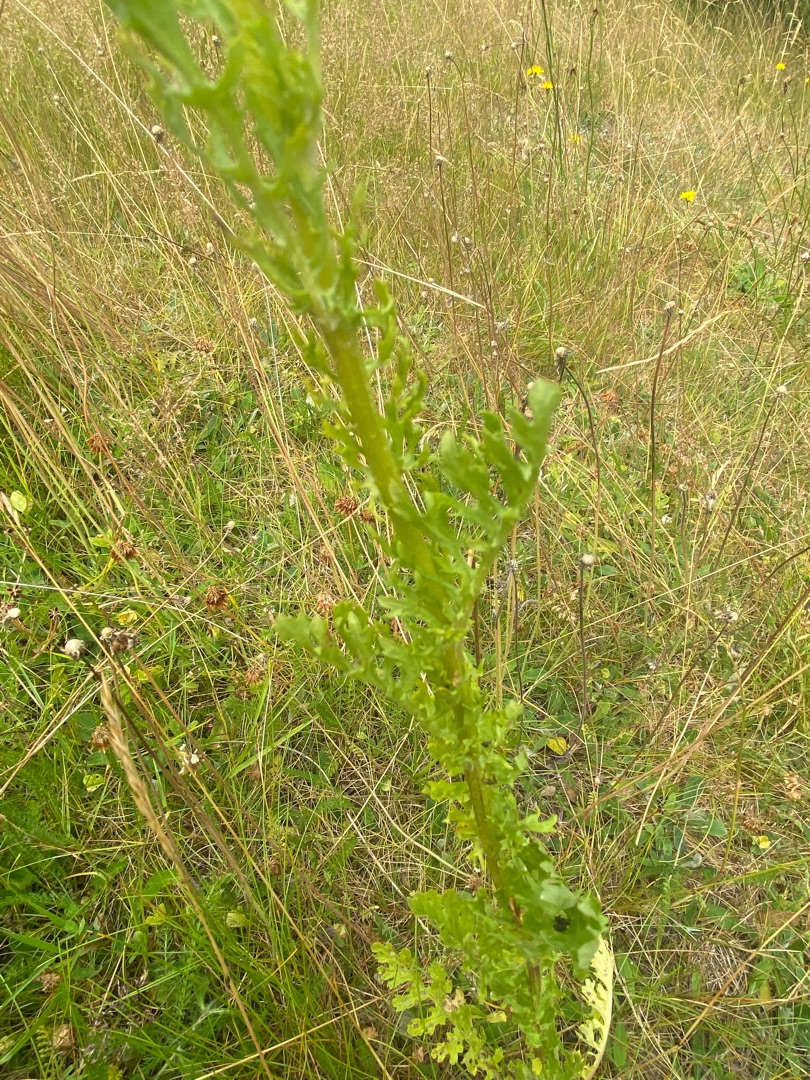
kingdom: Plantae
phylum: Tracheophyta
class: Magnoliopsida
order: Asterales
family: Asteraceae
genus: Jacobaea
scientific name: Jacobaea vulgaris
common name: Eng-brandbæger
